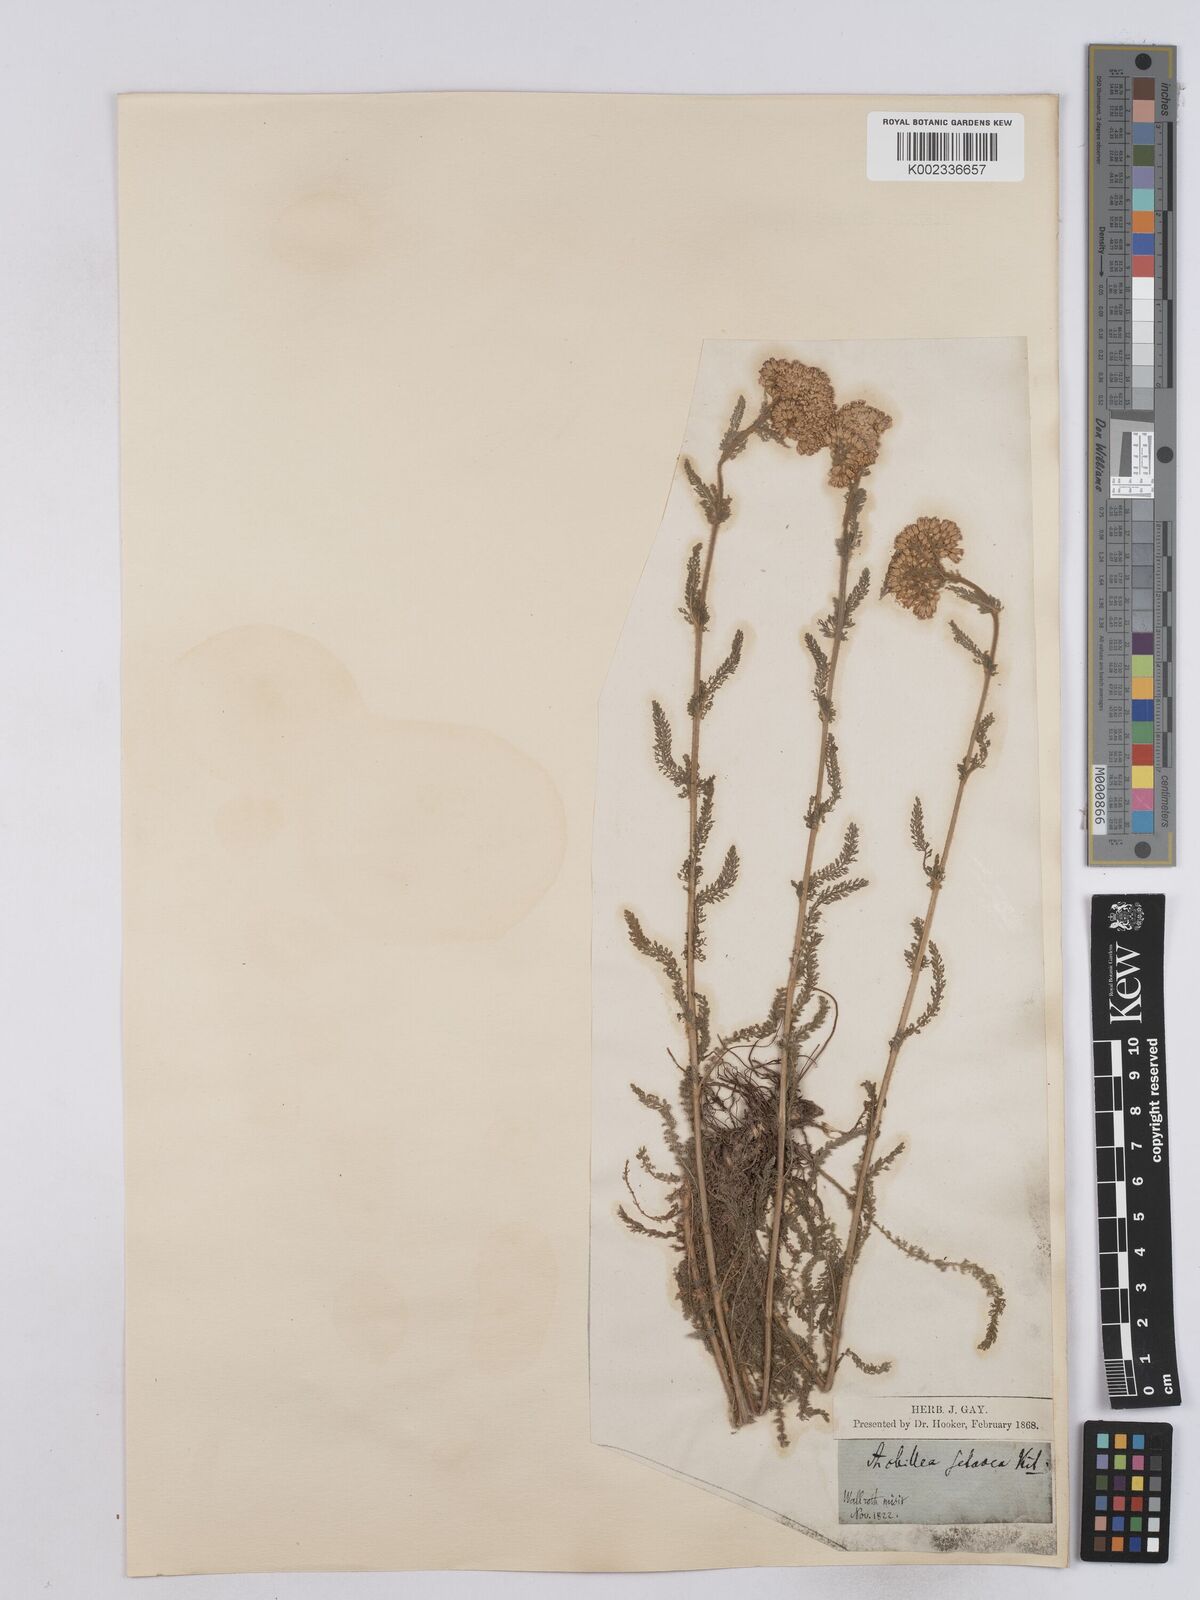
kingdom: Plantae
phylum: Tracheophyta
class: Magnoliopsida
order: Asterales
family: Asteraceae
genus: Achillea
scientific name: Achillea setacea
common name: Bristly yarrow
